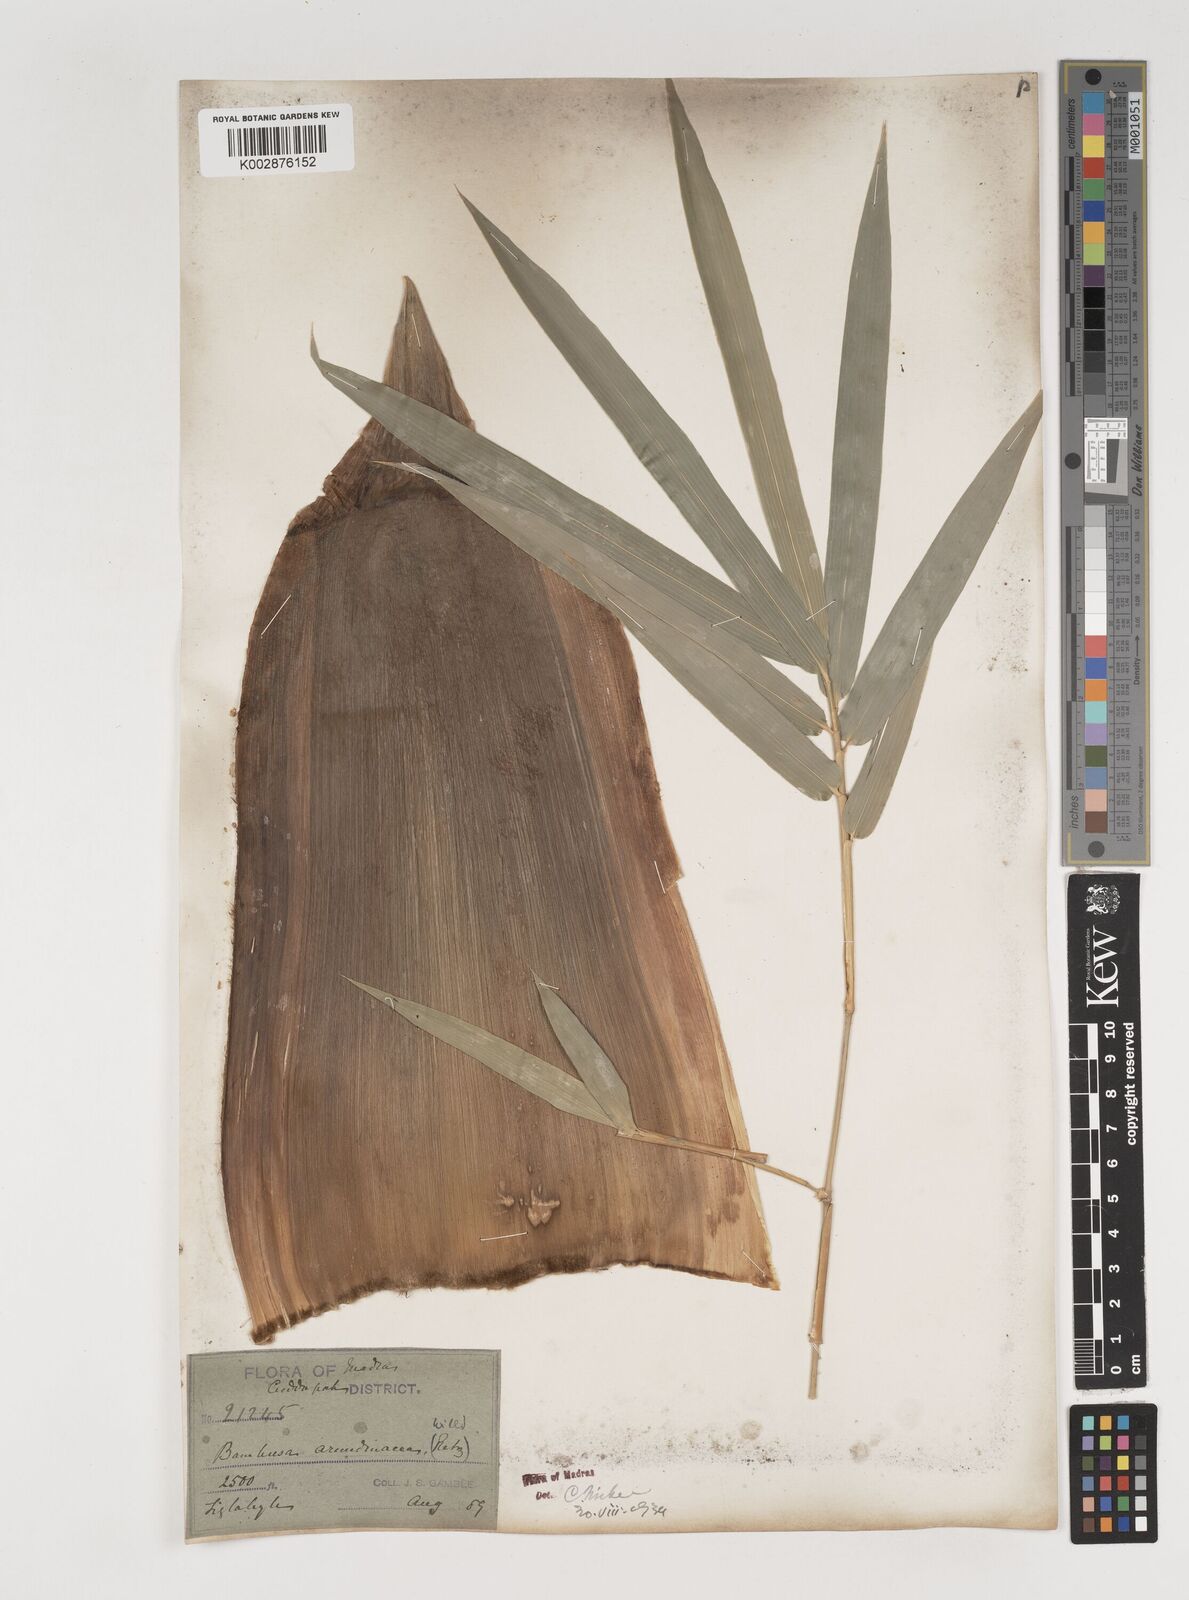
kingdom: Plantae
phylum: Tracheophyta
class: Liliopsida
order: Poales
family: Poaceae
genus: Bambusa
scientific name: Bambusa bambos
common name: Indian thorny bamboo
